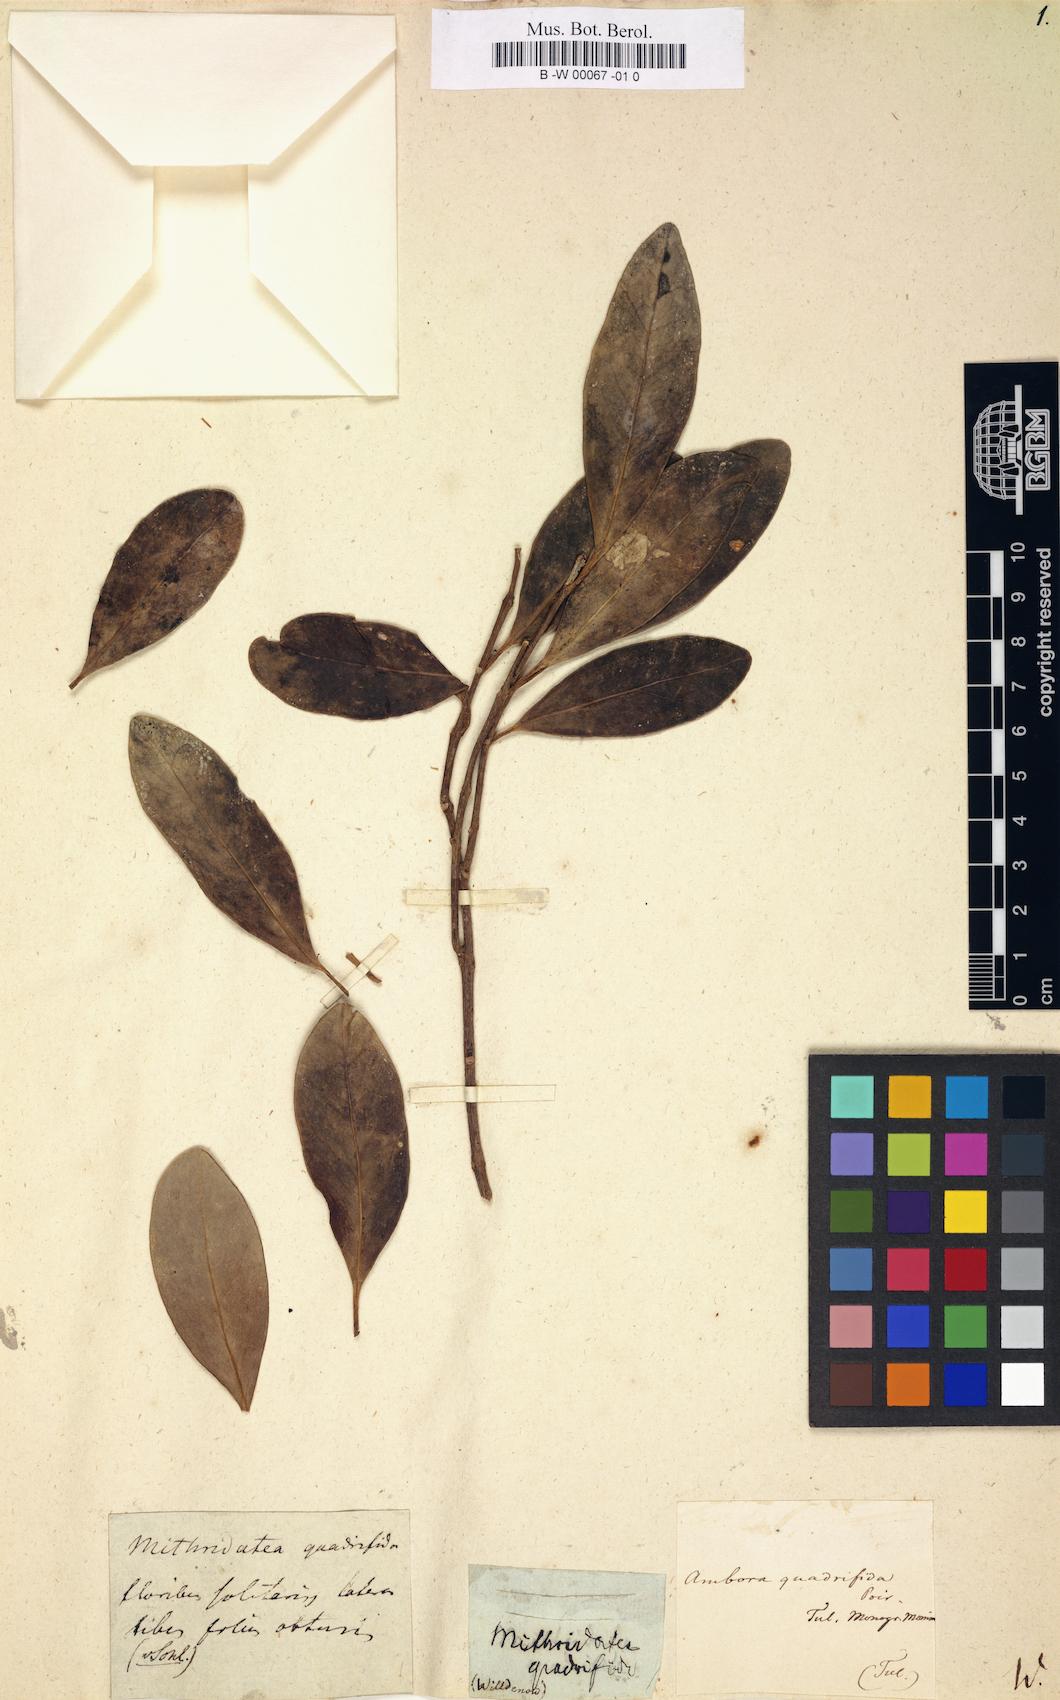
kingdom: Plantae
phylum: Tracheophyta
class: Magnoliopsida
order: Laurales
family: Monimiaceae
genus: Tambourissa
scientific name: Tambourissa Mithridatea quadrifida
